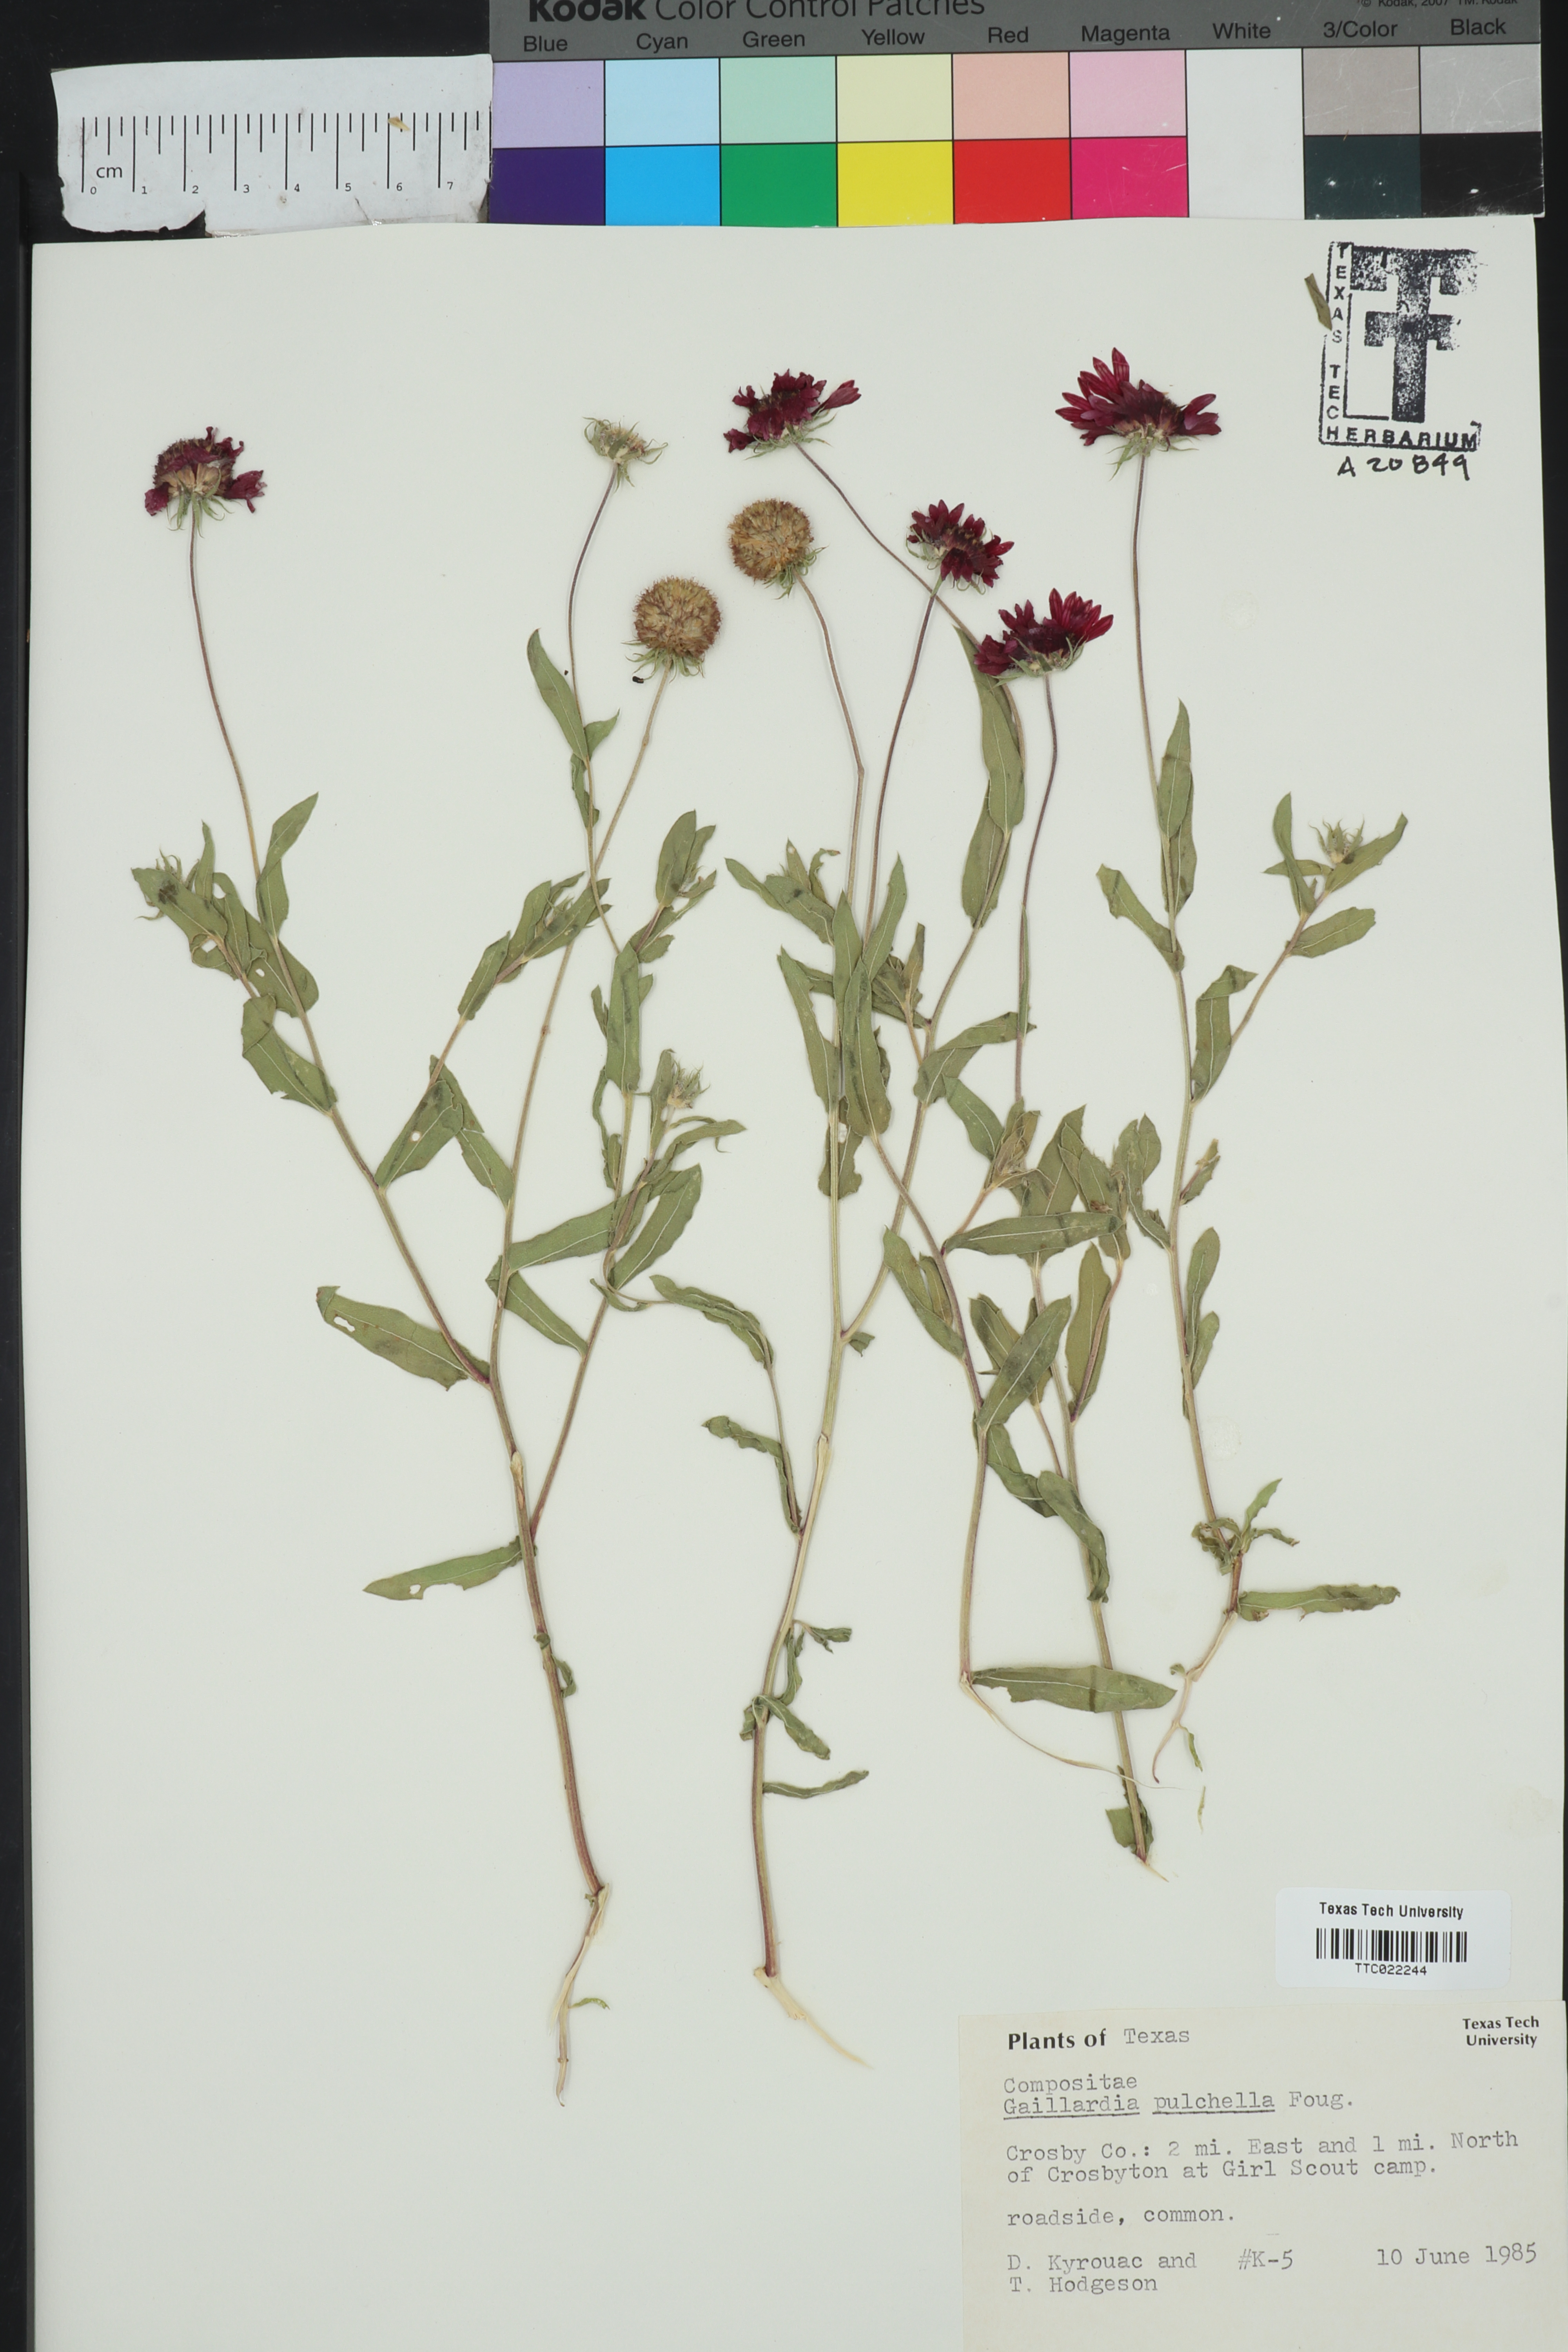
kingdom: Plantae
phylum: Tracheophyta
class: Magnoliopsida
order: Asterales
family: Asteraceae
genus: Gaillardia
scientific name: Gaillardia pulchella
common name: Firewheel
